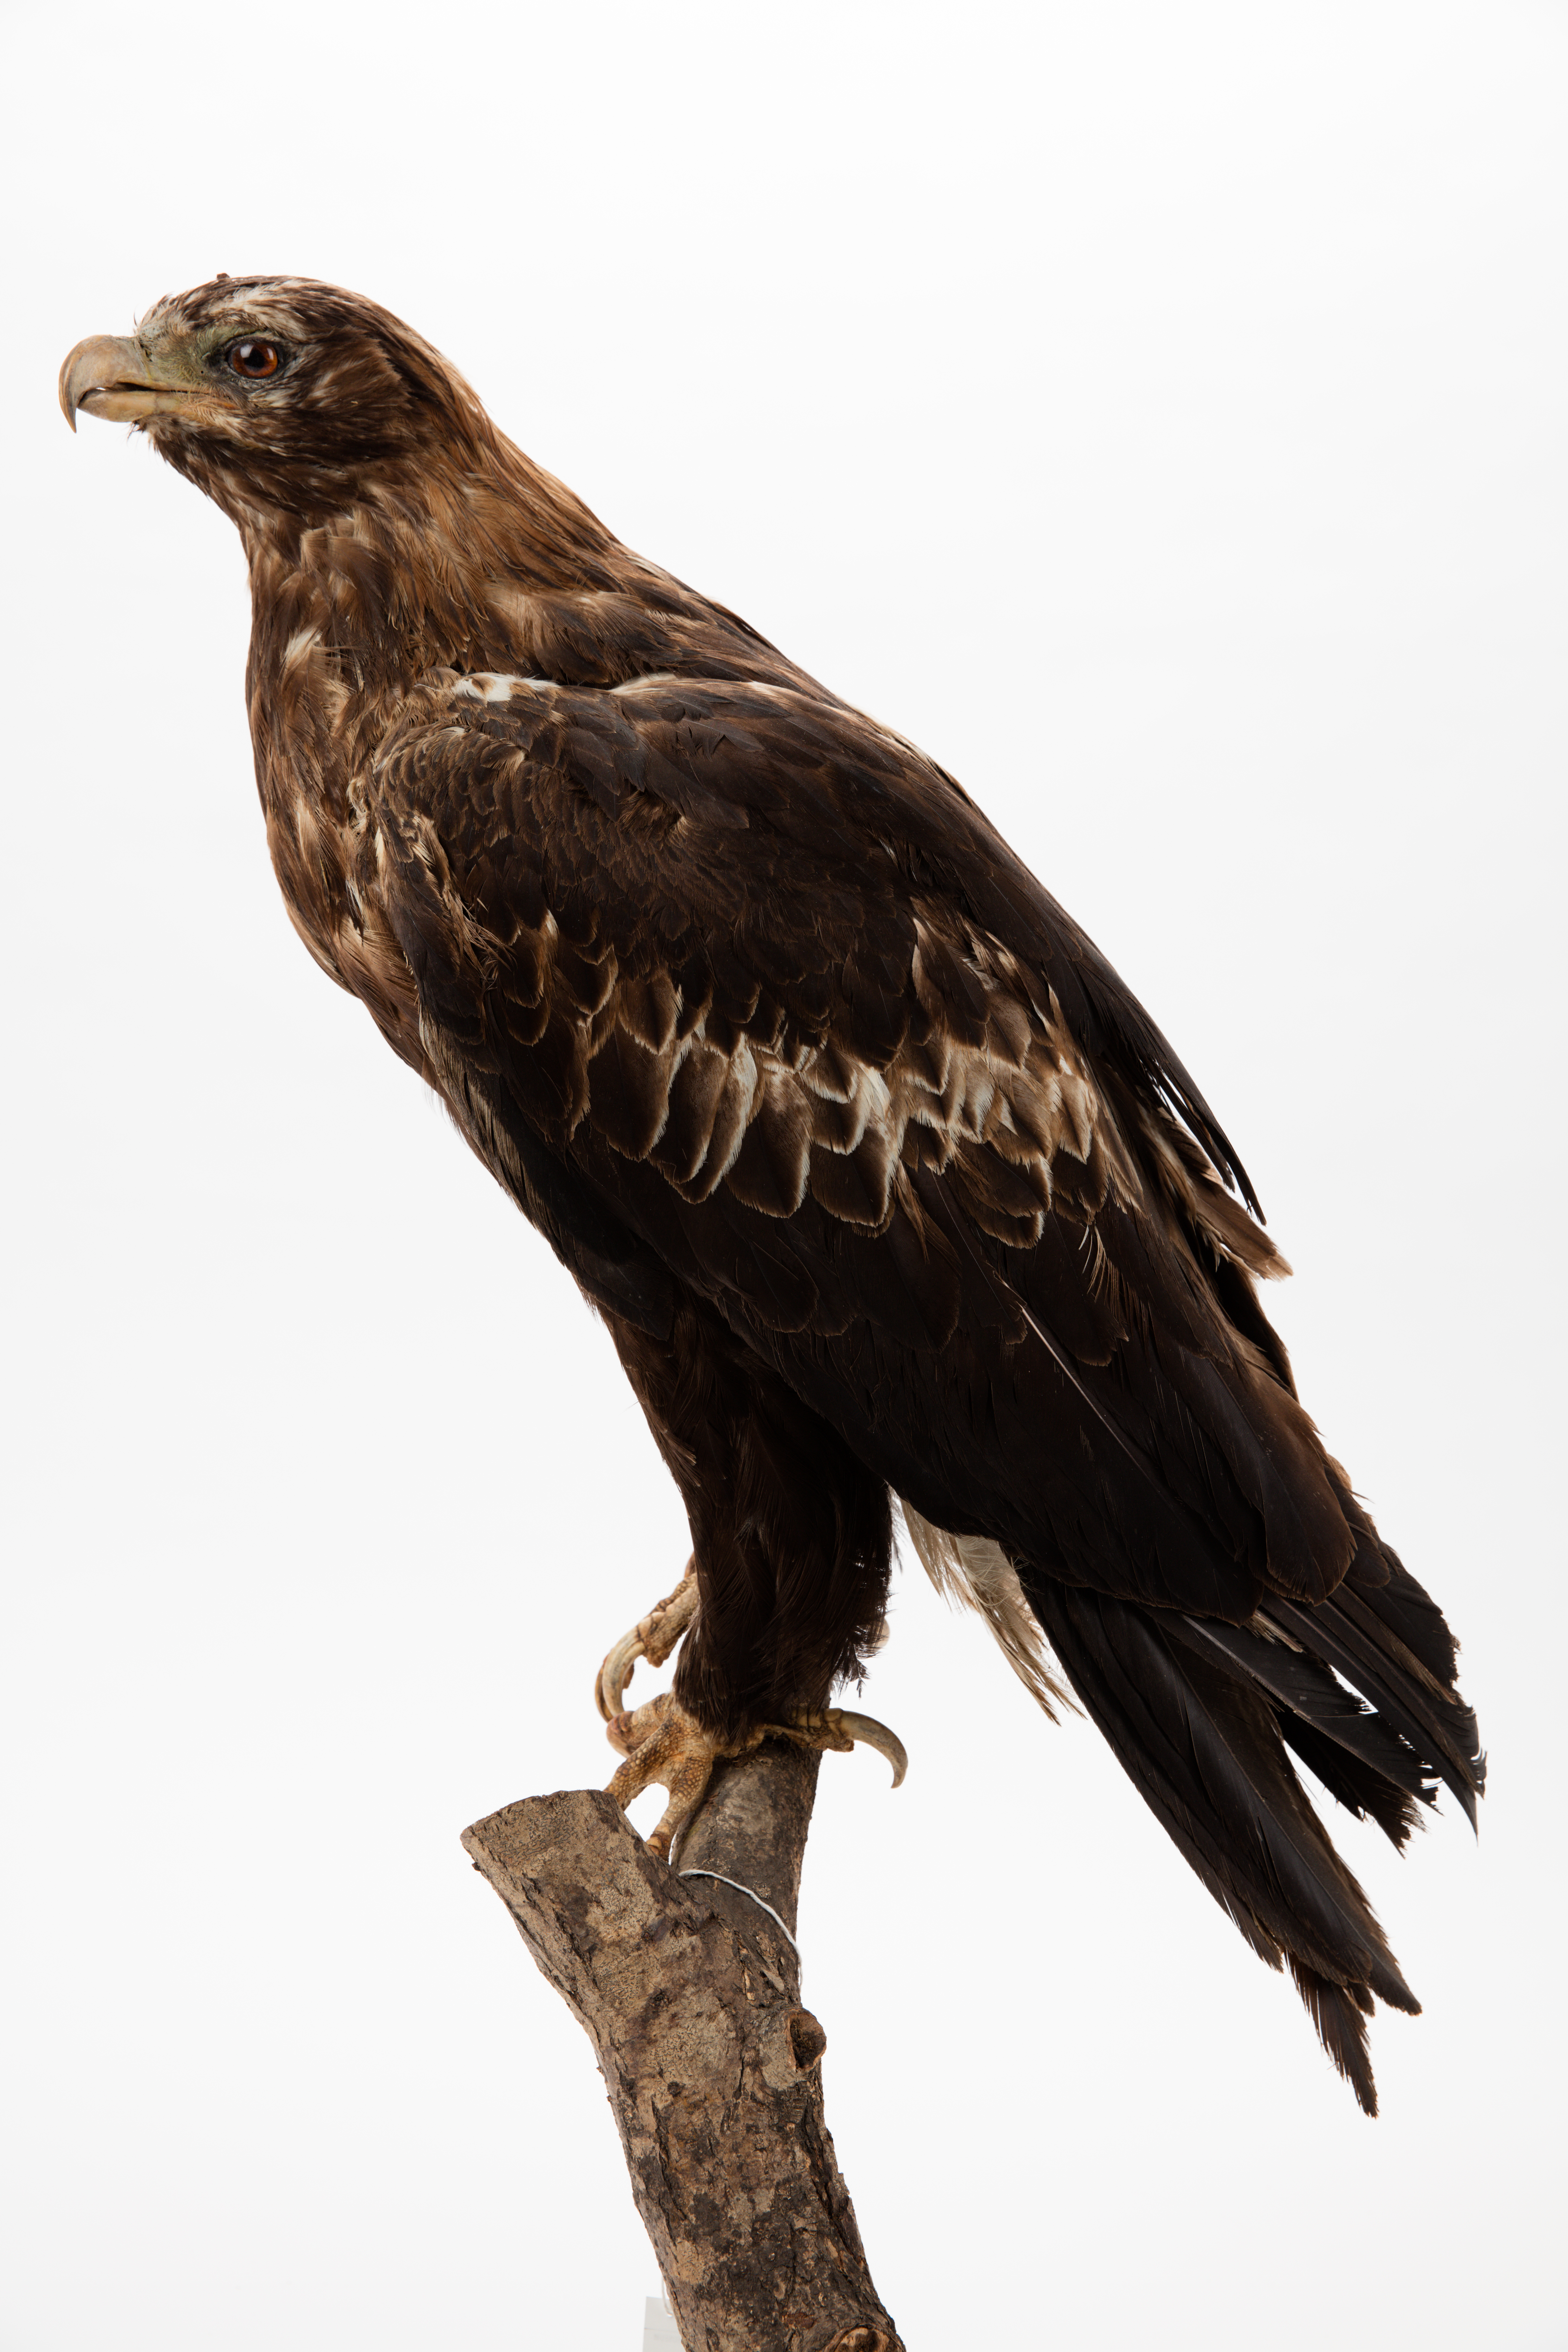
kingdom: Animalia
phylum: Chordata
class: Aves
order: Accipitriformes
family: Accipitridae
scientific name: Accipitridae
